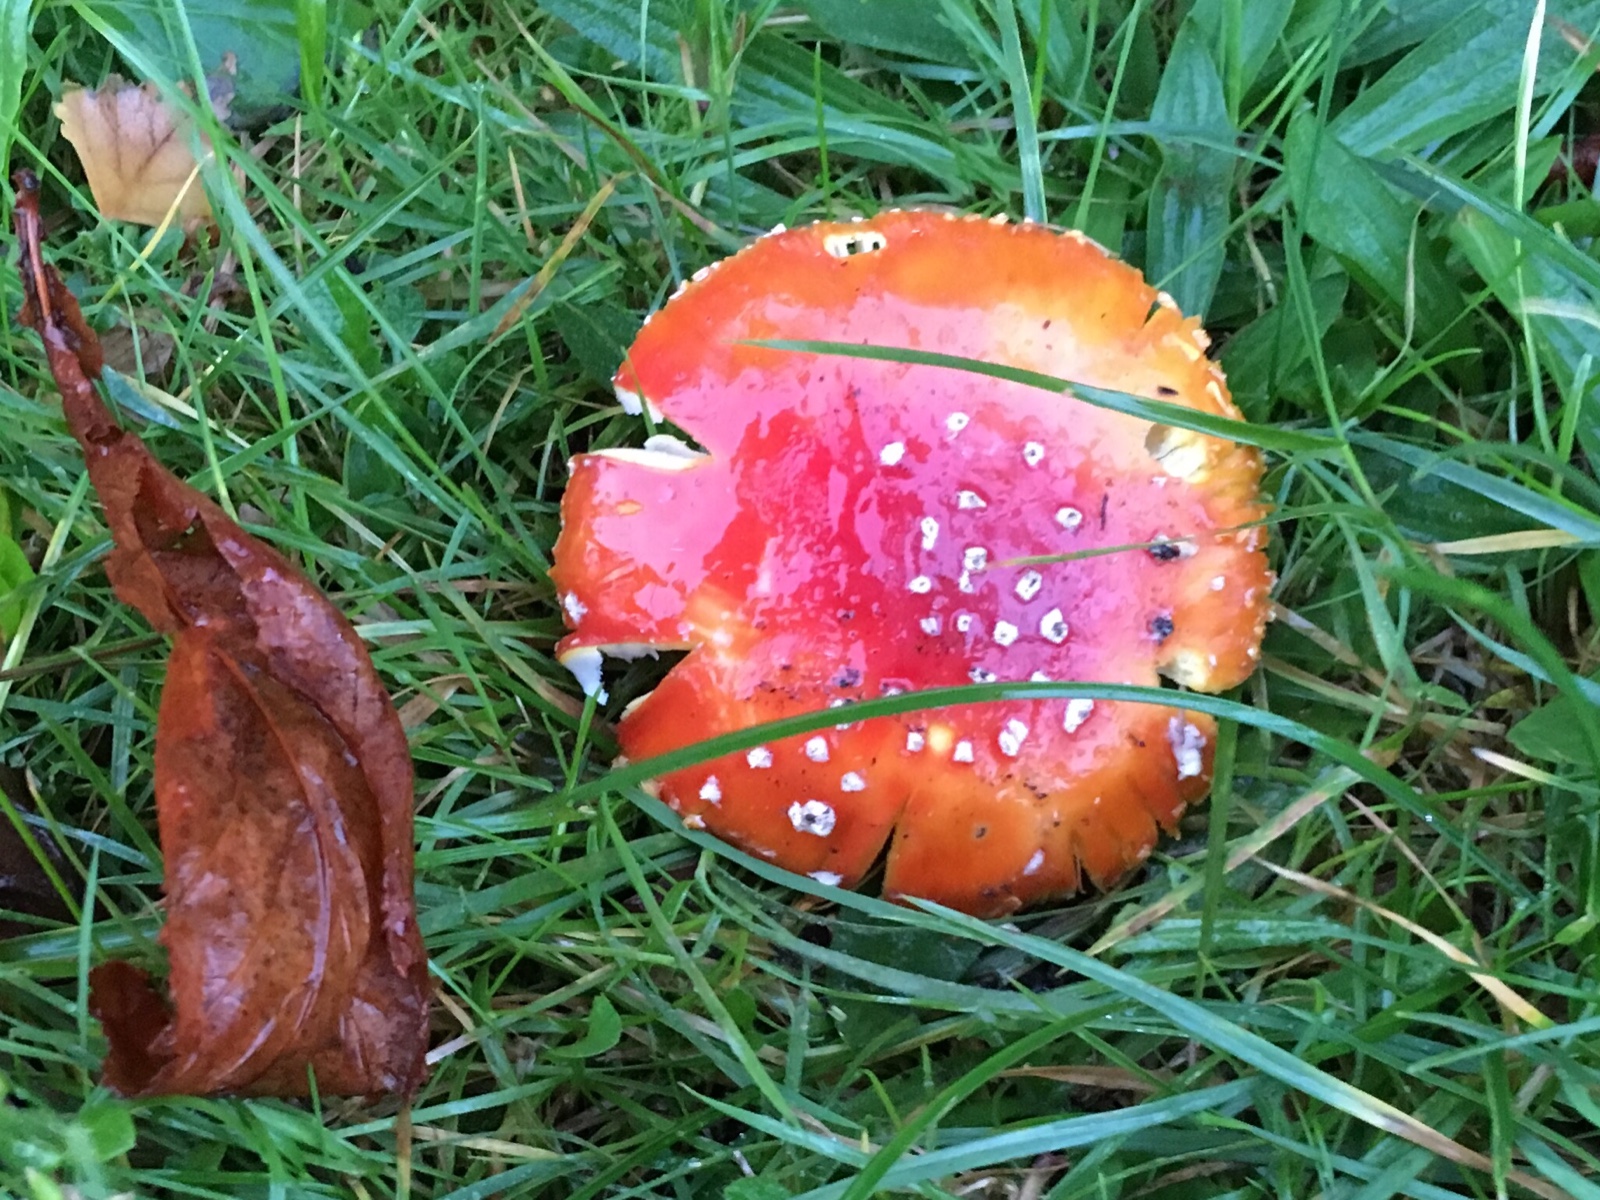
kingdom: Fungi
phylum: Basidiomycota
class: Agaricomycetes
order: Agaricales
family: Amanitaceae
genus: Amanita
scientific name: Amanita muscaria
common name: rød fluesvamp
